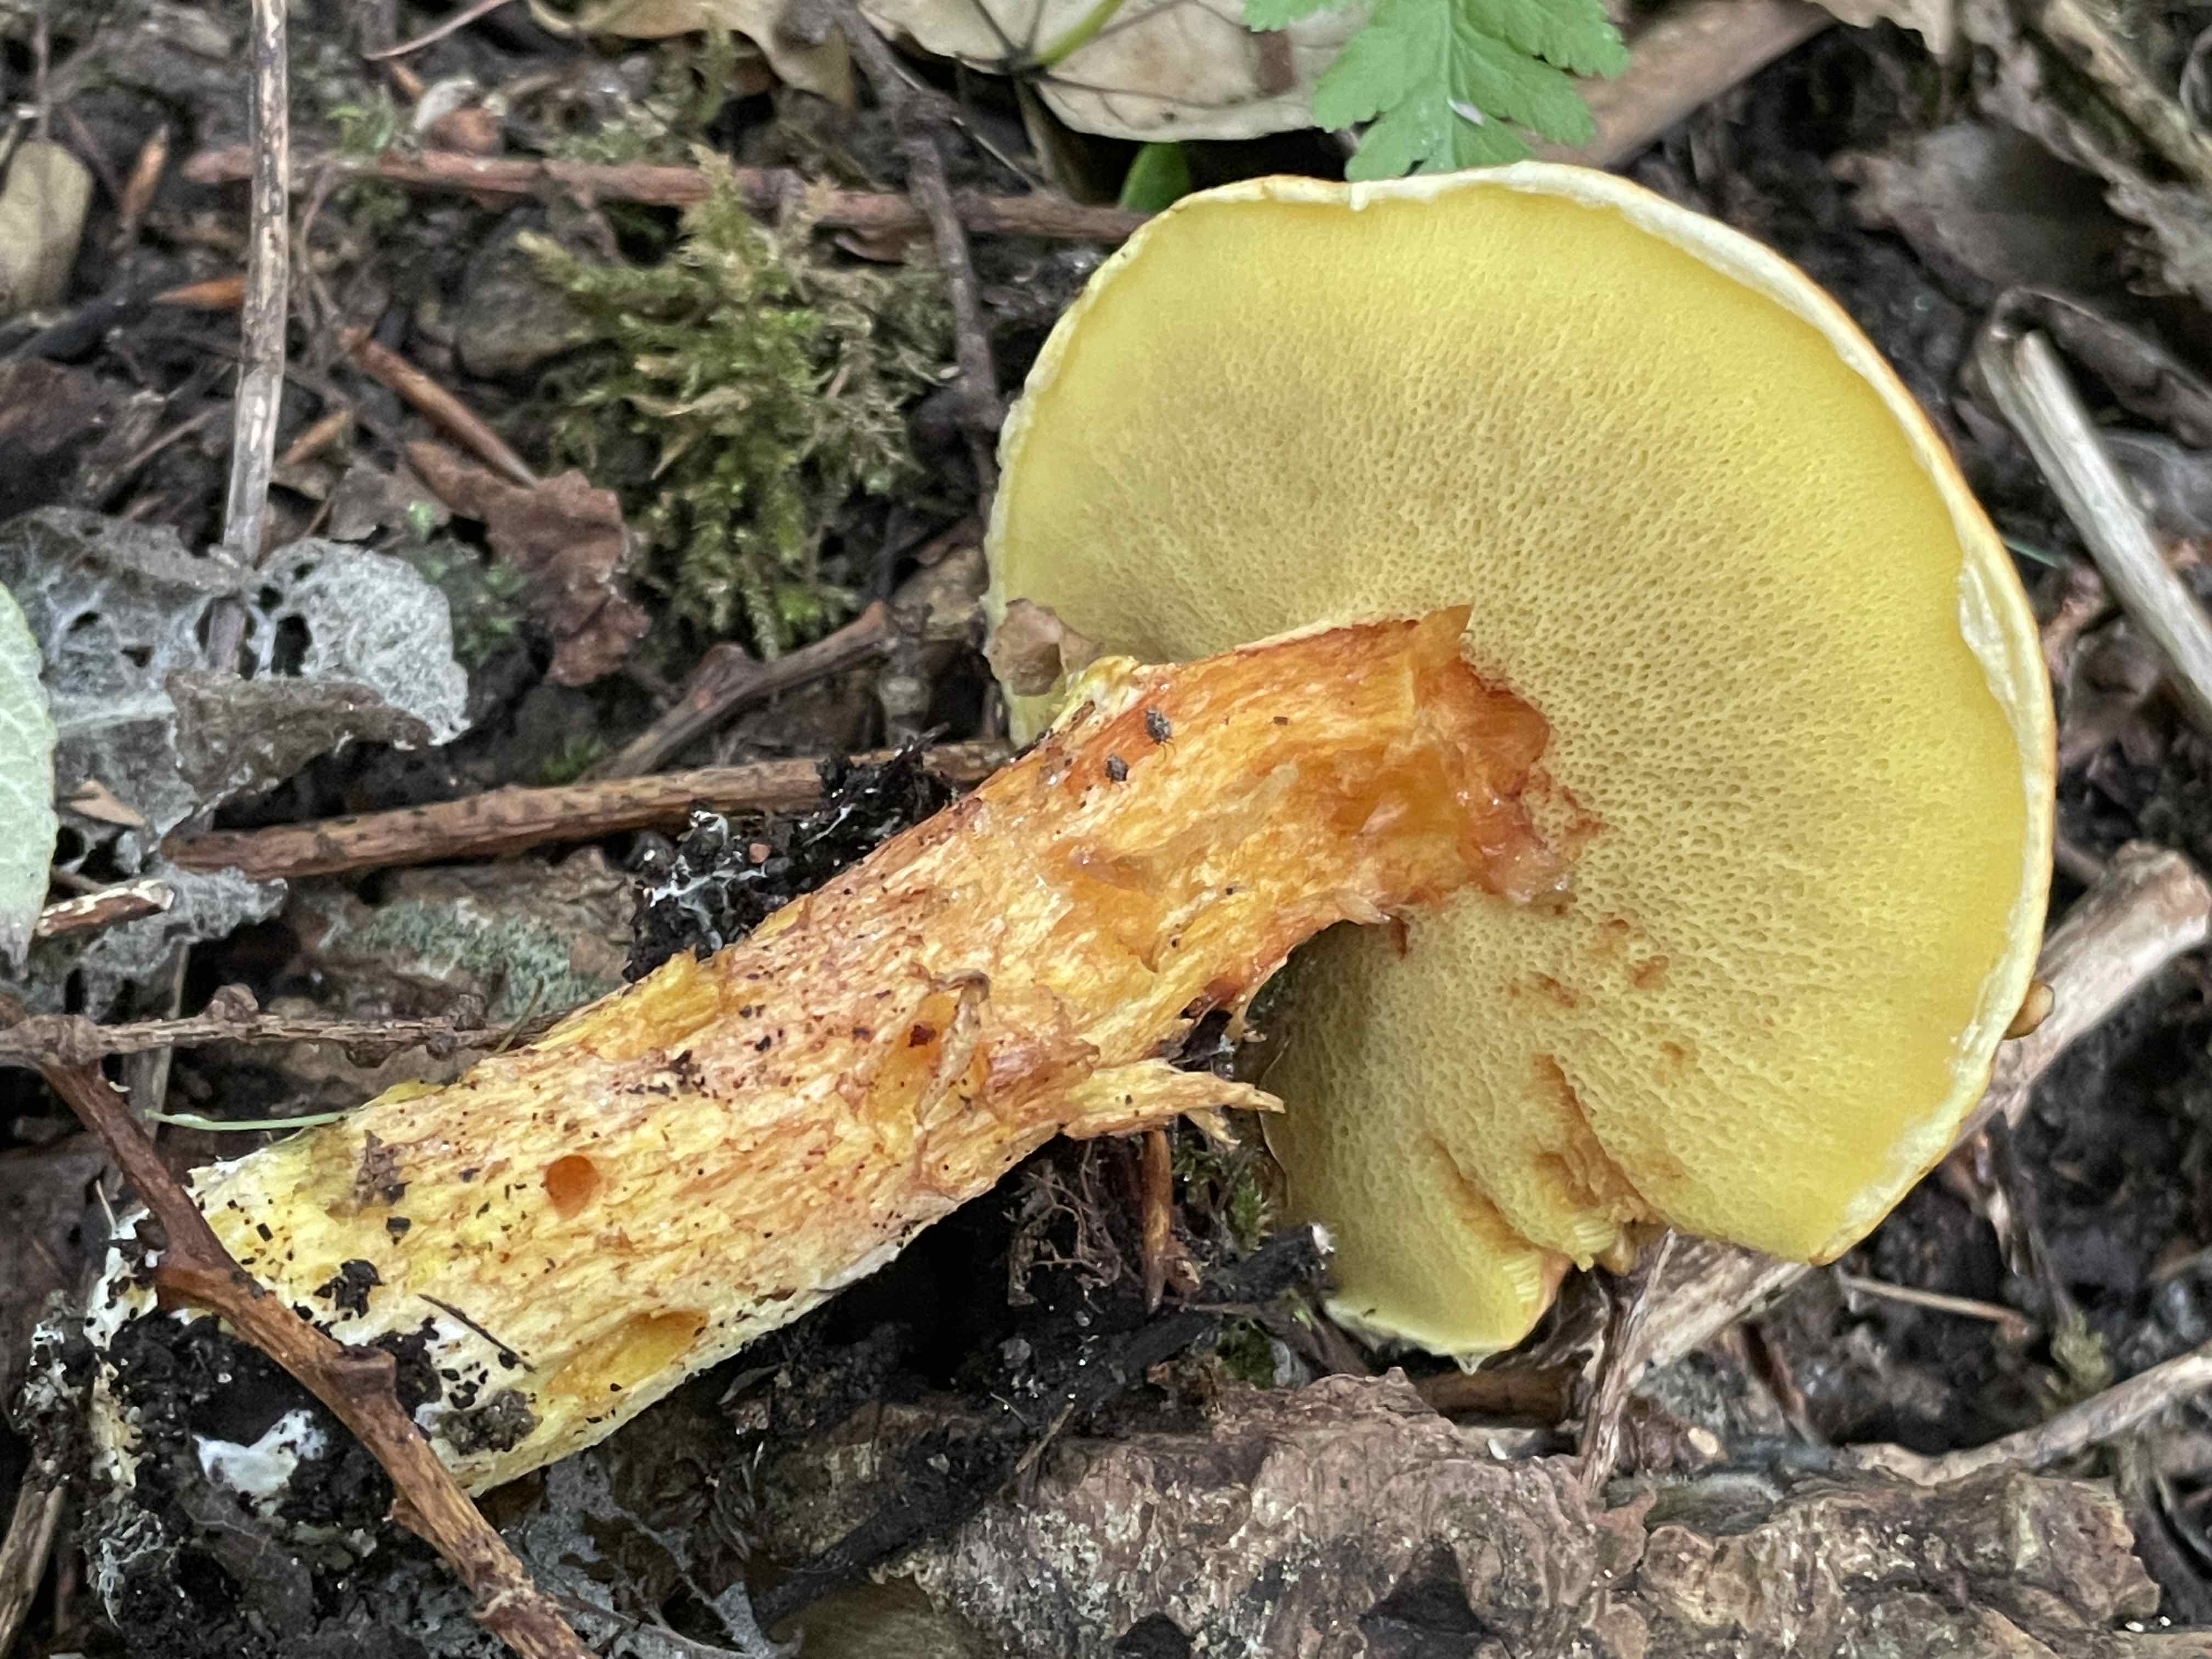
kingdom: Fungi
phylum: Basidiomycota
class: Agaricomycetes
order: Boletales
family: Suillaceae
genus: Suillus
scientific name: Suillus grevillei
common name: lærke-slimrørhat
